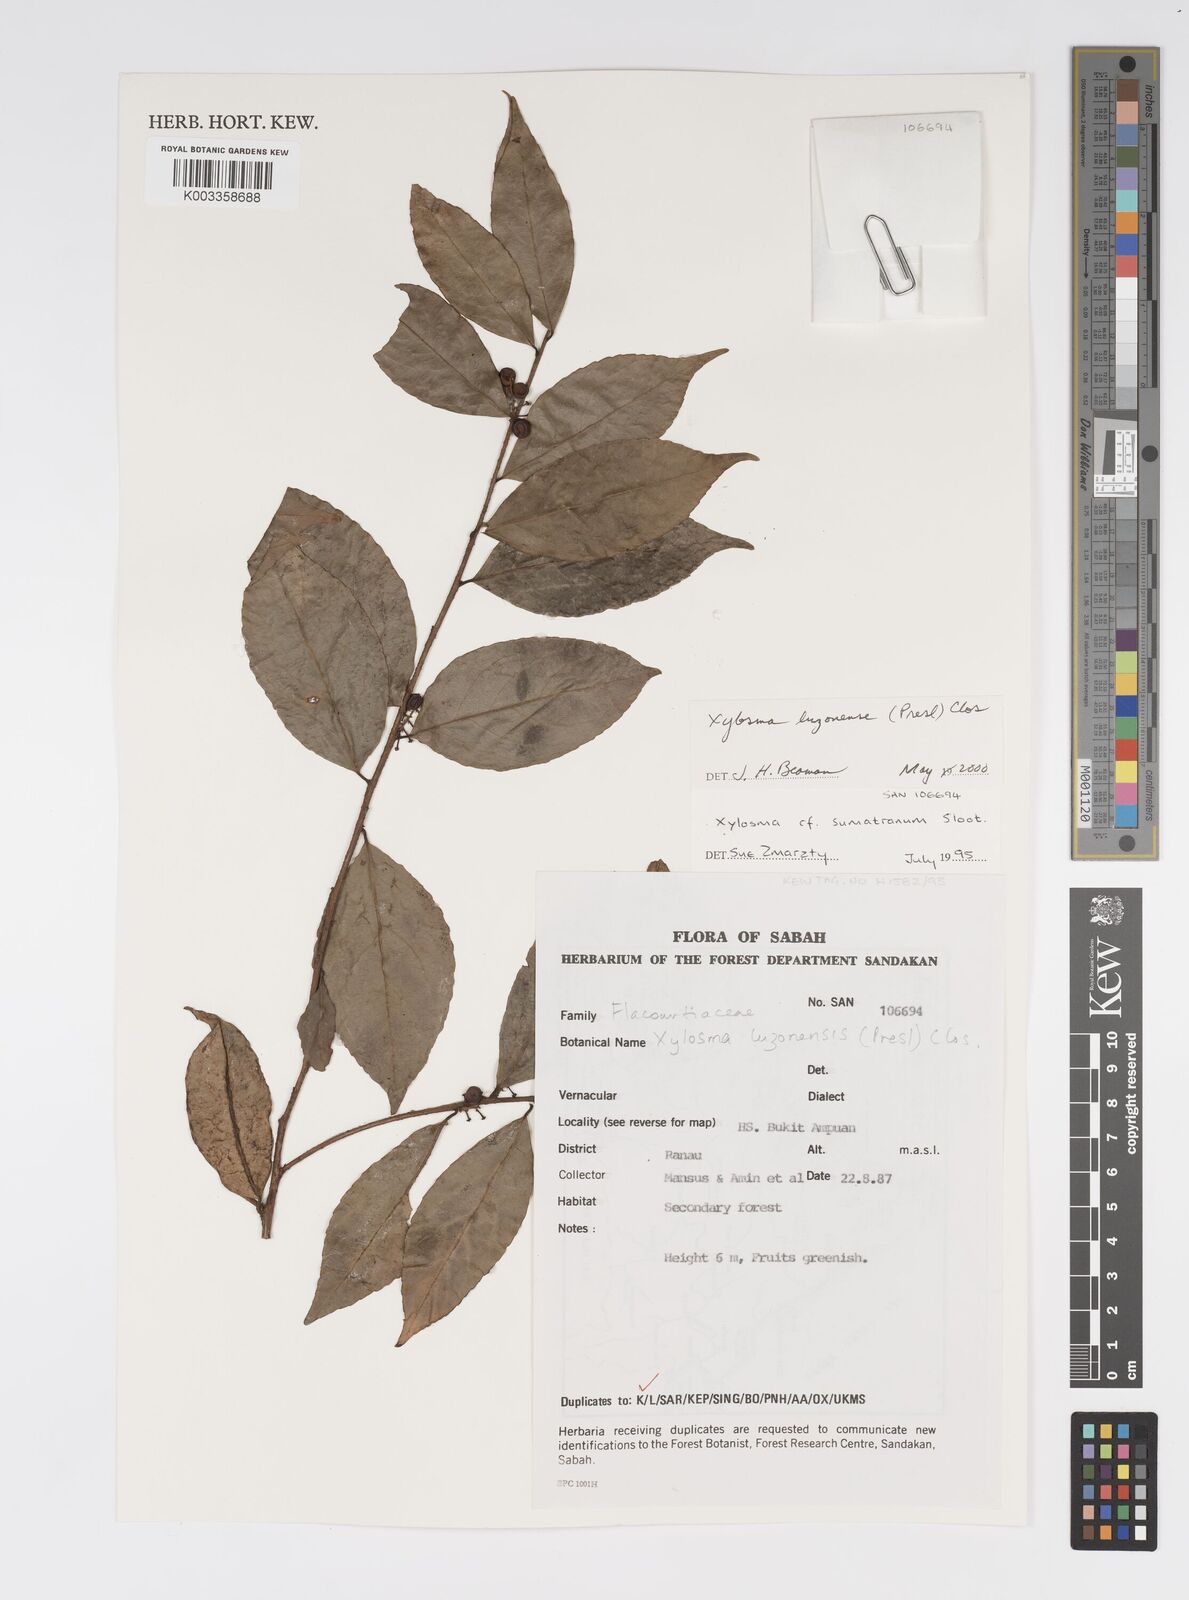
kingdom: Plantae
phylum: Tracheophyta
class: Magnoliopsida
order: Malpighiales
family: Salicaceae
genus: Xylosma
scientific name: Xylosma luzonensis
